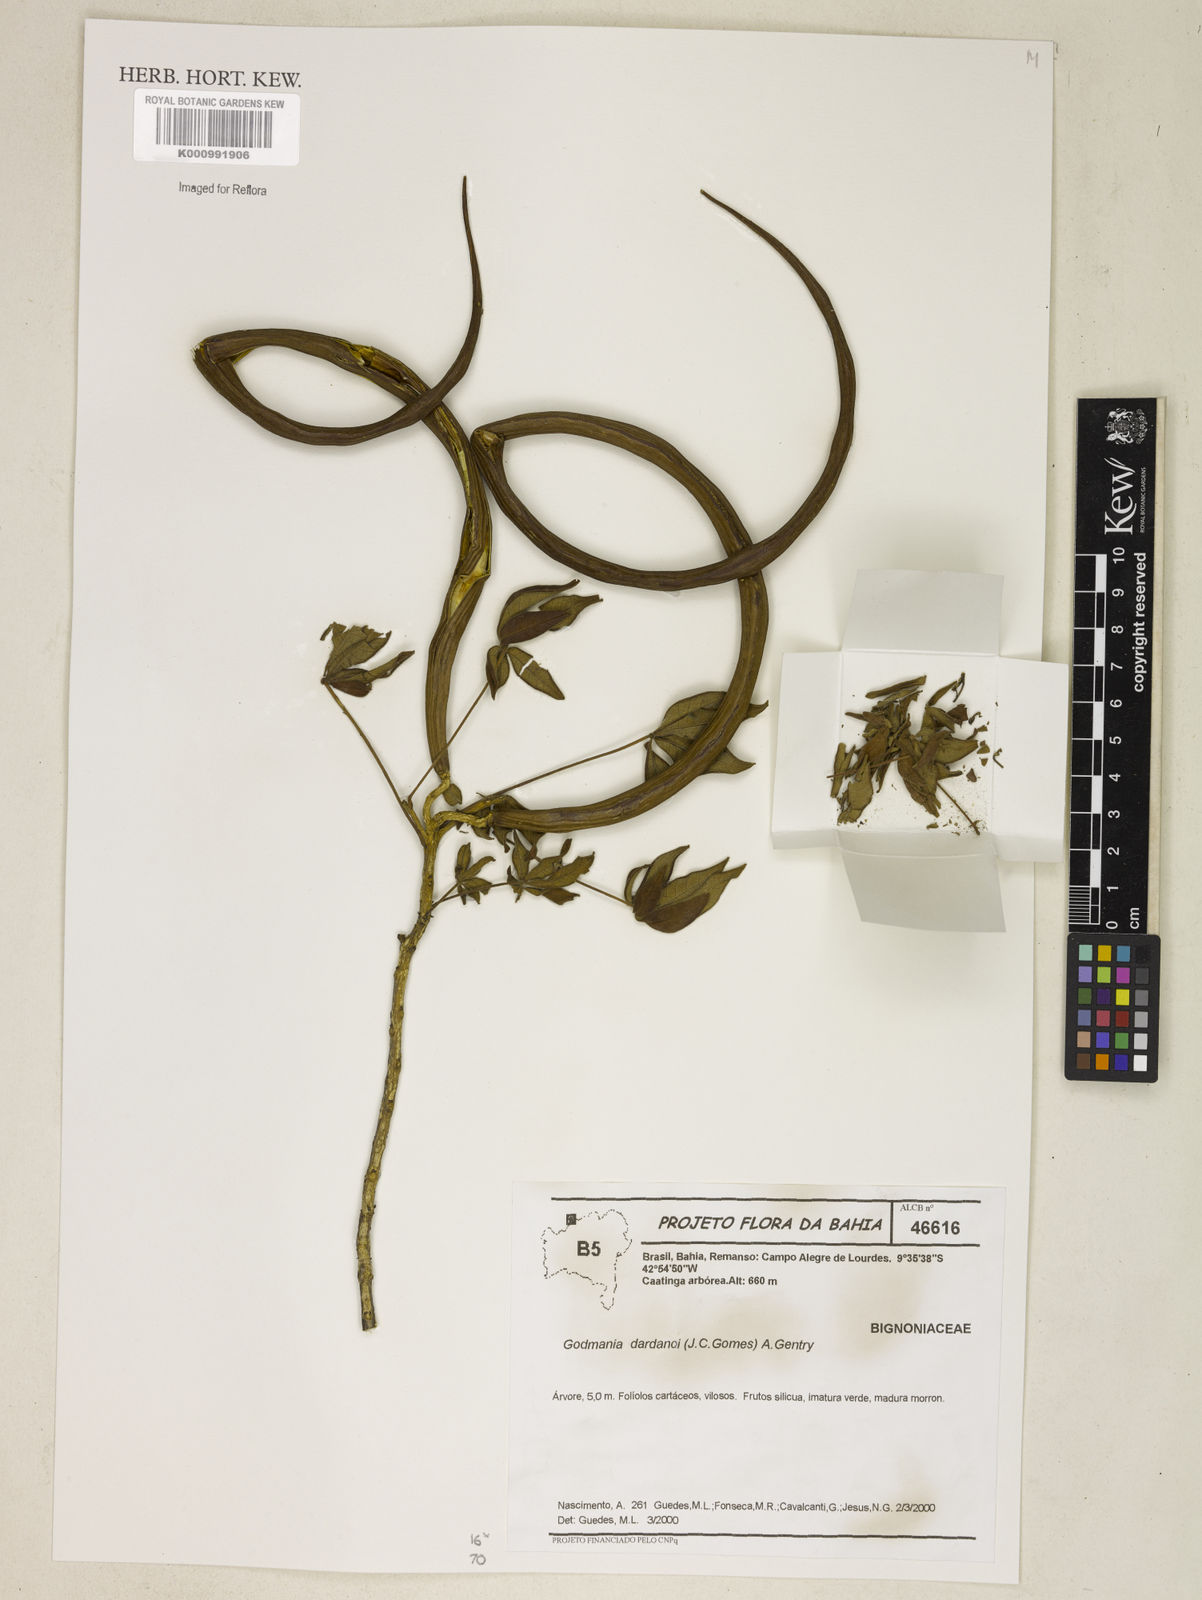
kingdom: Plantae
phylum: Tracheophyta
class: Magnoliopsida
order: Lamiales
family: Bignoniaceae
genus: Godmania
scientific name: Godmania dardanoi
